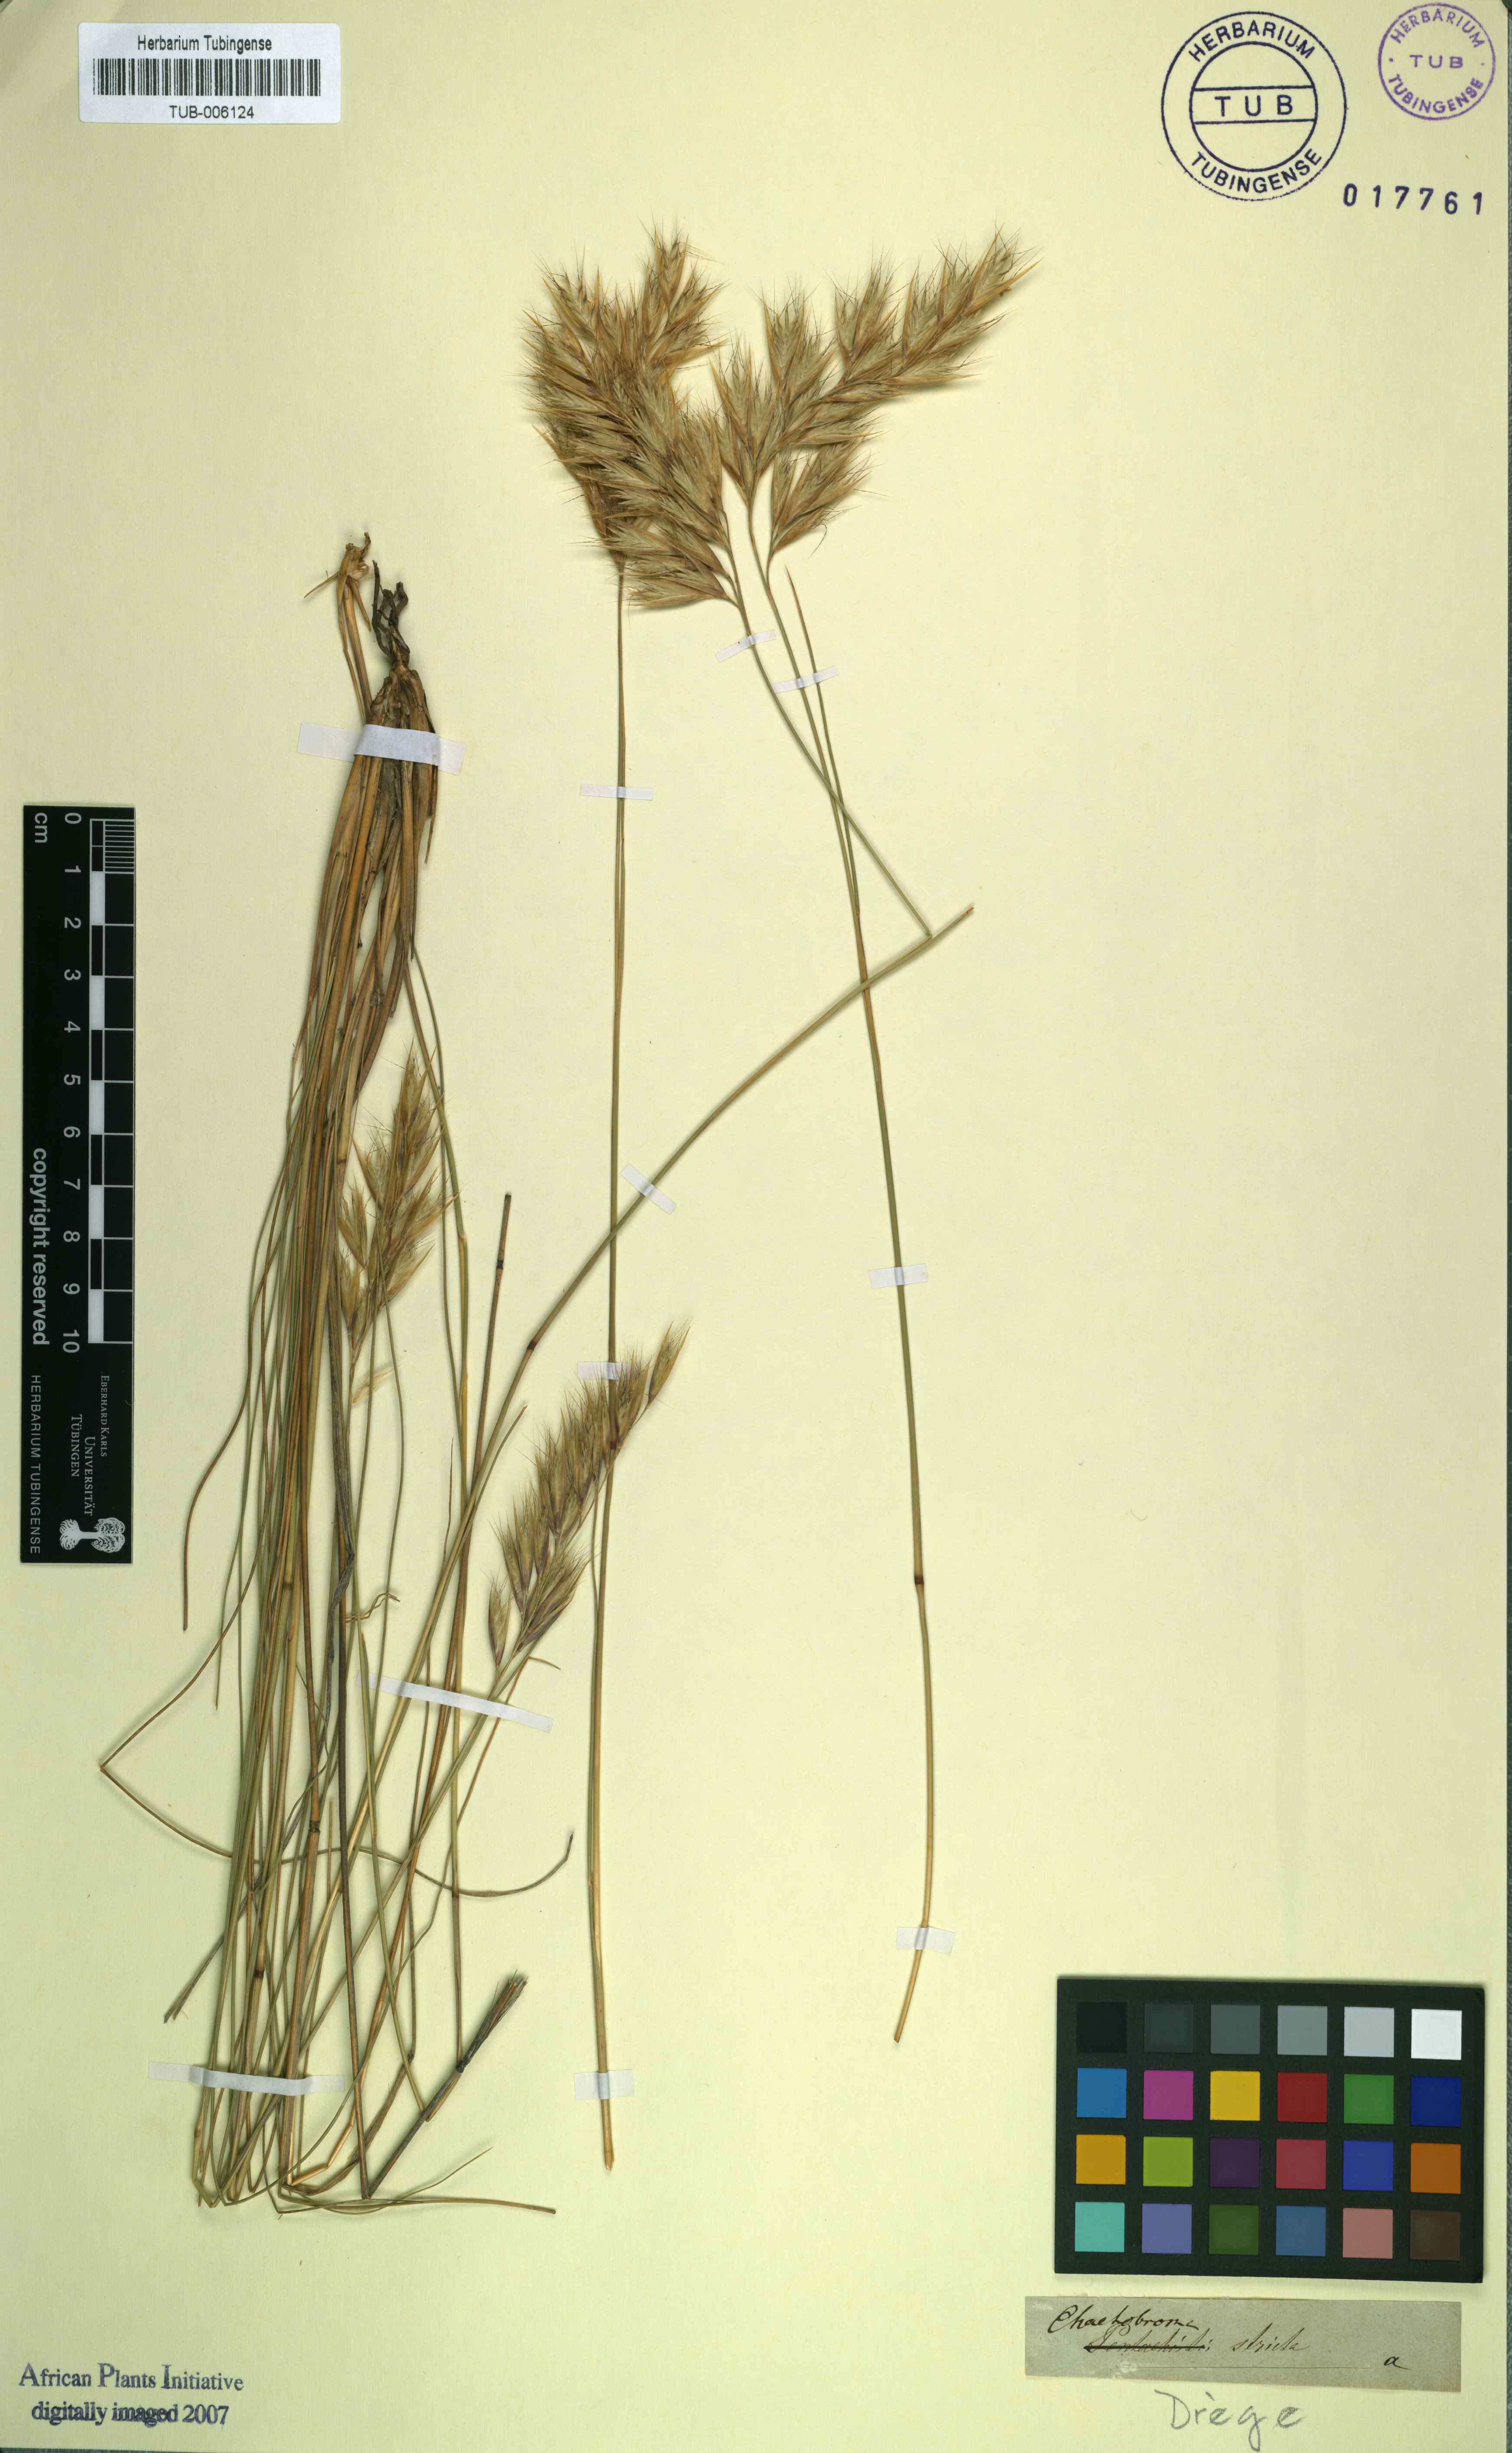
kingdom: Plantae
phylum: Tracheophyta
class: Liliopsida
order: Poales
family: Poaceae
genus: Tenaxia
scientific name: Tenaxia stricta
